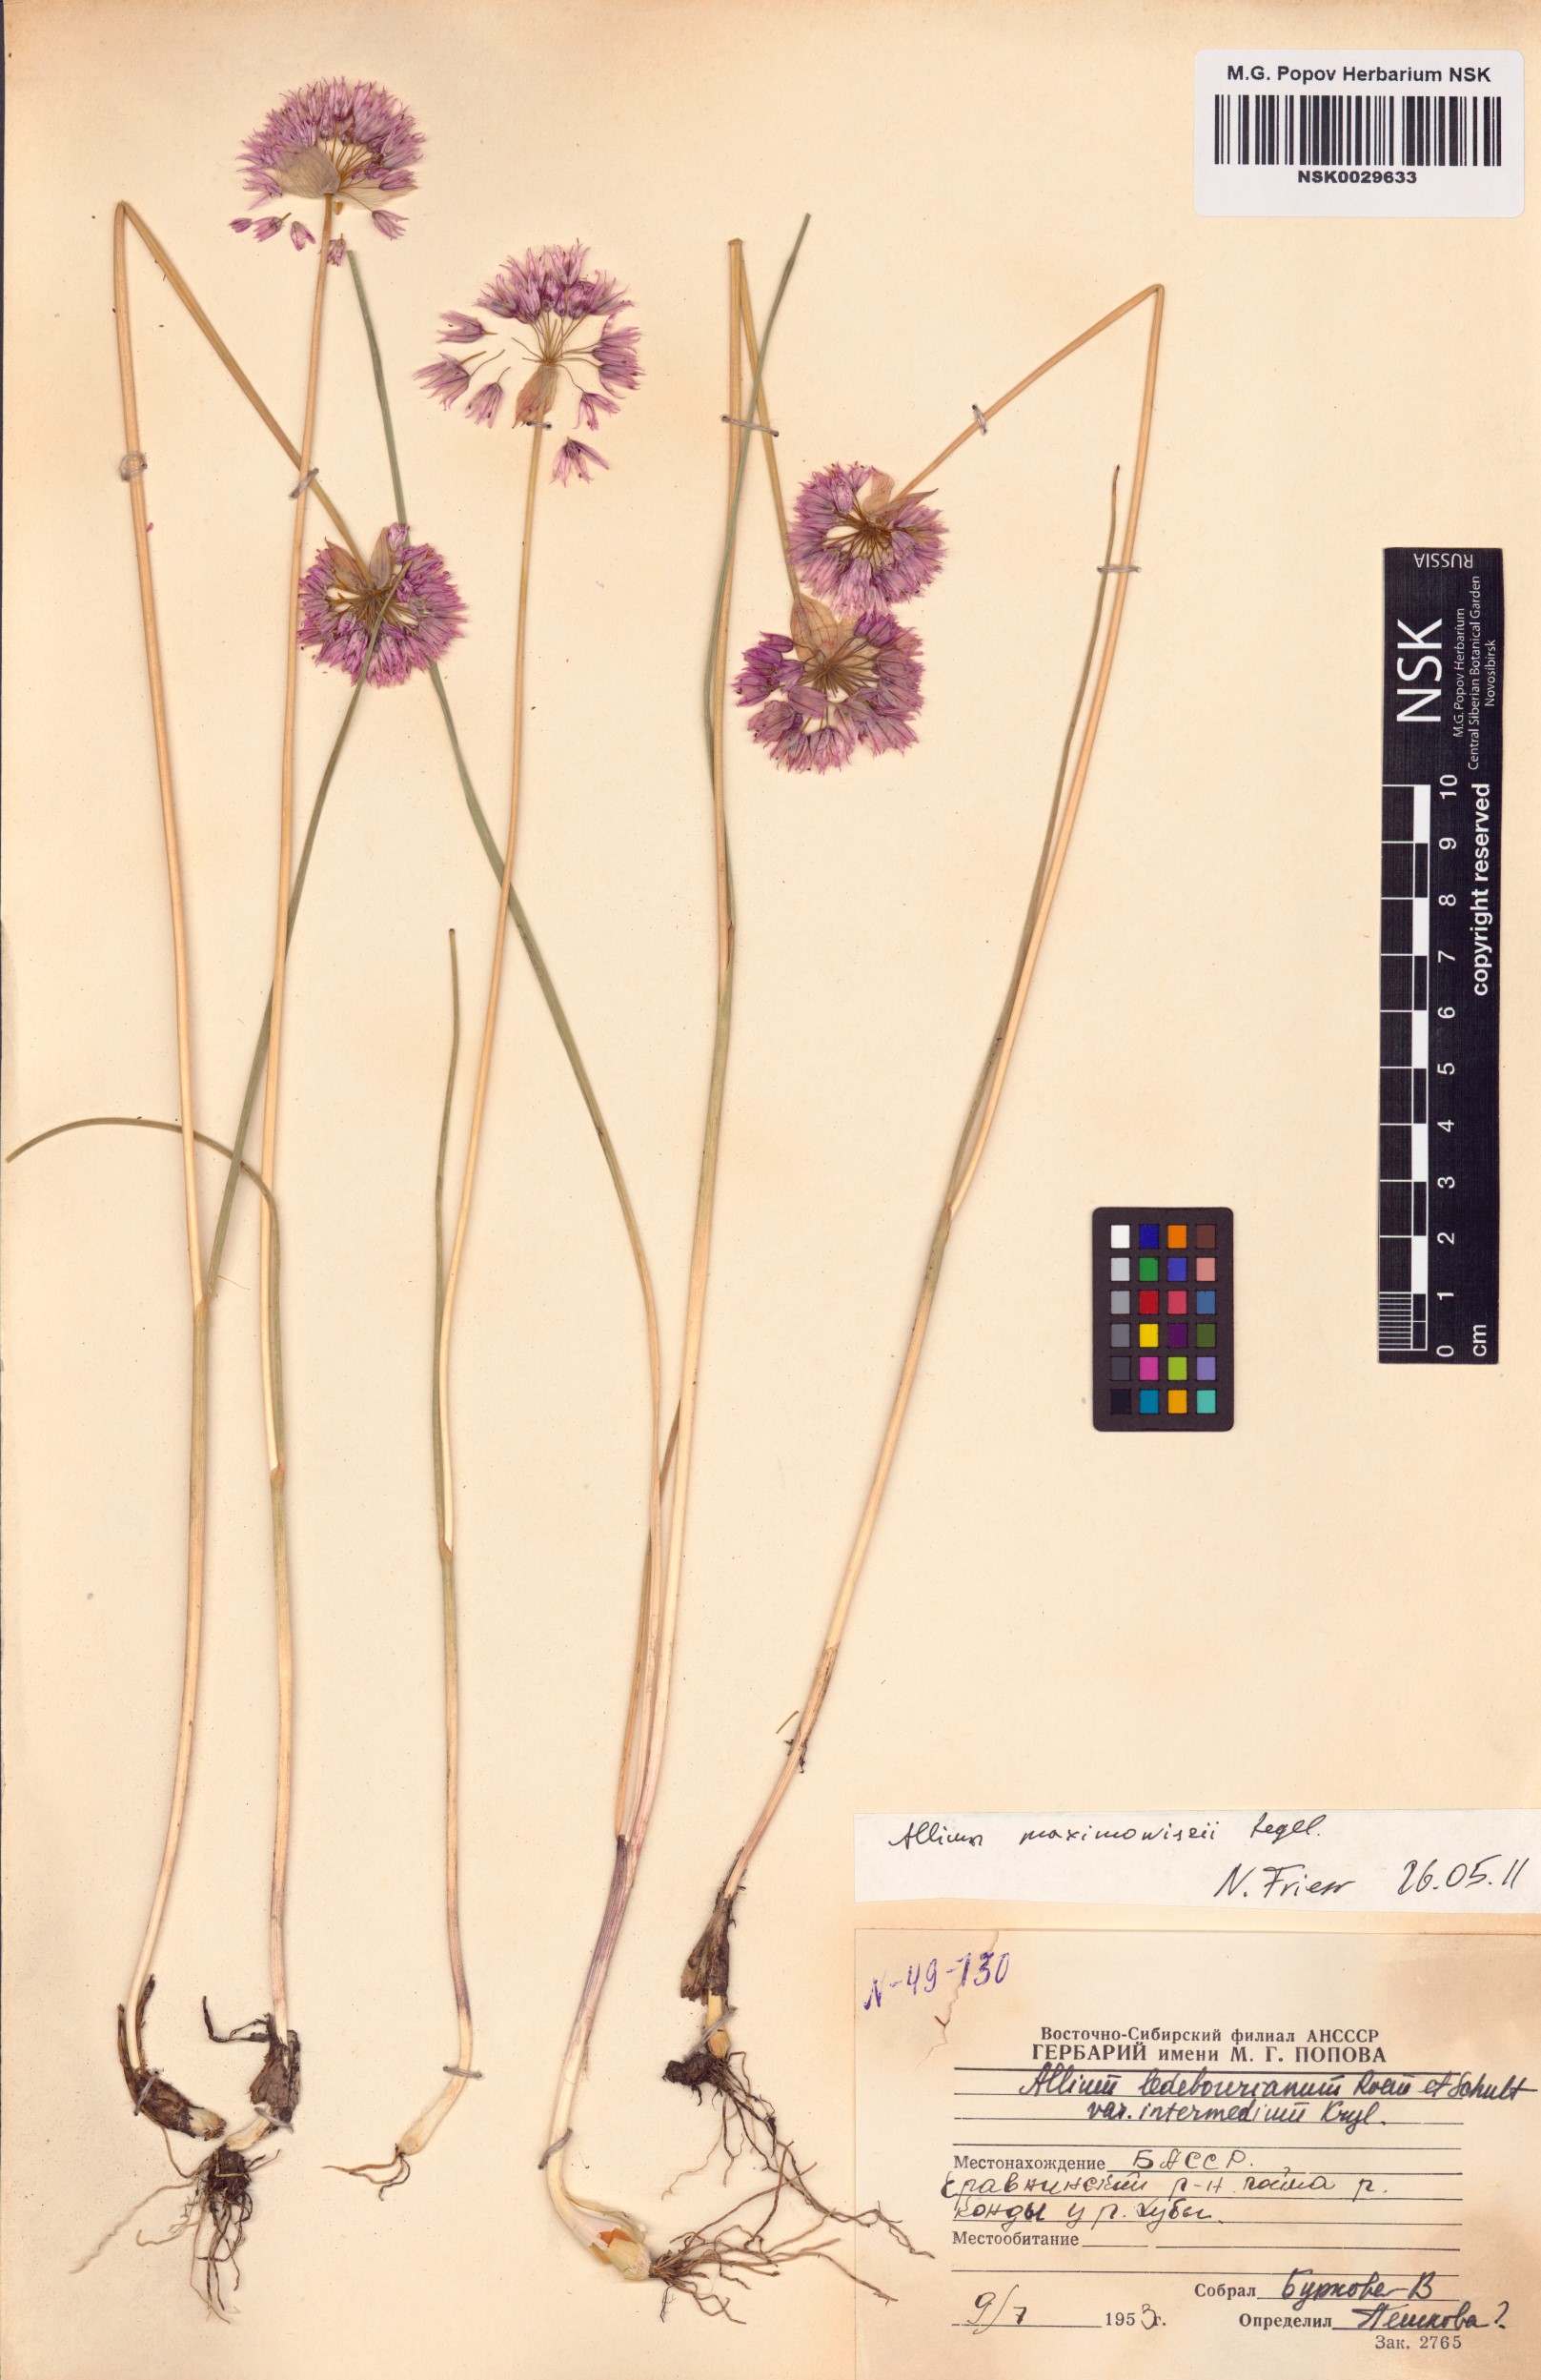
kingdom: Plantae
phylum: Tracheophyta
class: Liliopsida
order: Asparagales
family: Amaryllidaceae
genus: Allium
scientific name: Allium maximowiczii
